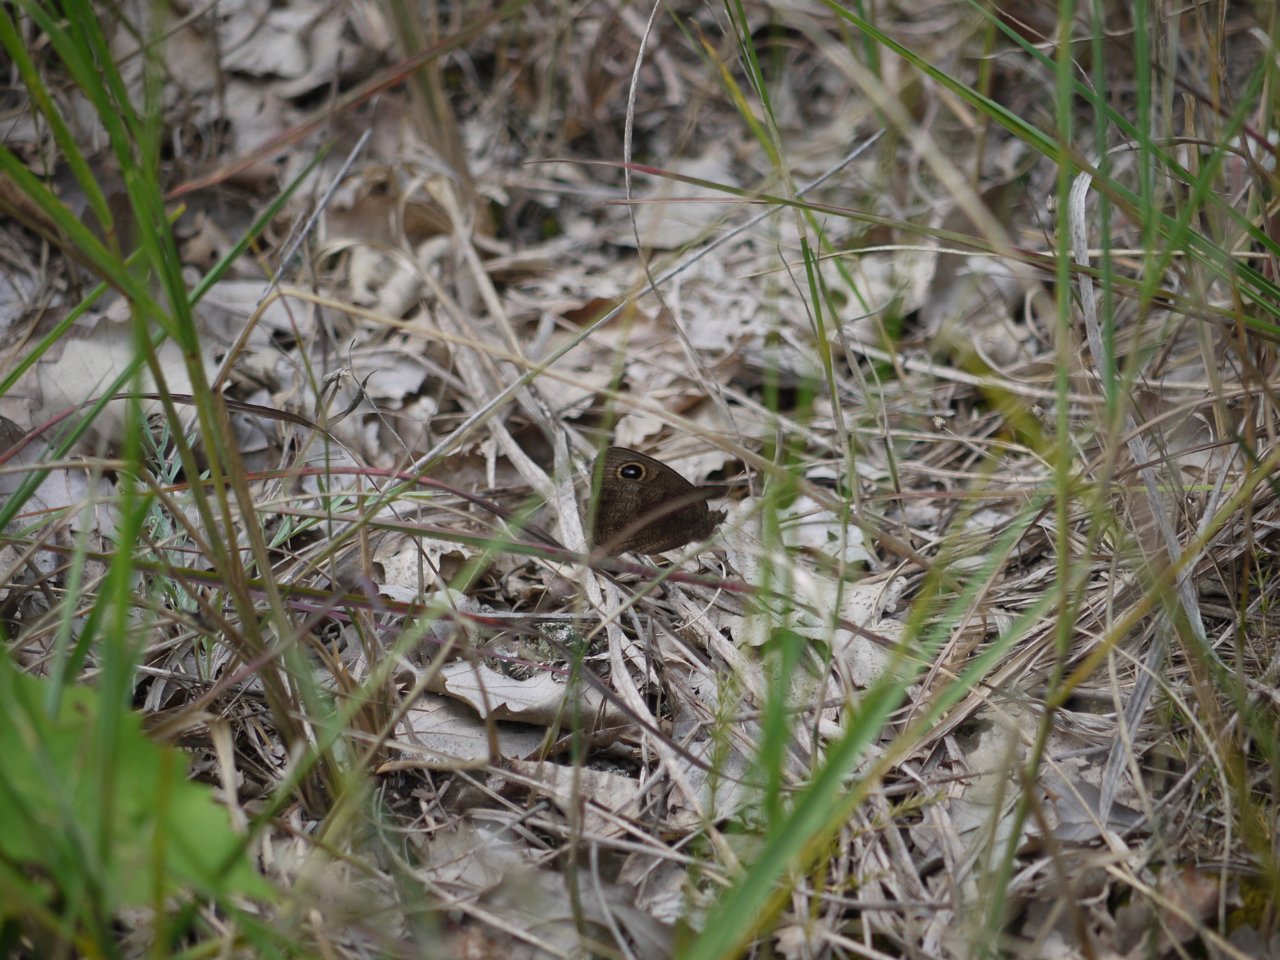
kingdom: Animalia
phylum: Arthropoda
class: Insecta
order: Lepidoptera
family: Nymphalidae
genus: Cercyonis
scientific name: Cercyonis pegala
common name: Common Wood-Nymph
